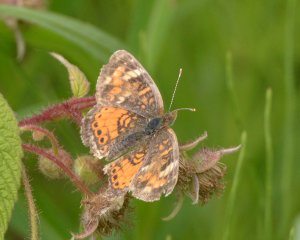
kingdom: Animalia
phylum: Arthropoda
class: Insecta
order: Lepidoptera
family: Nymphalidae
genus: Phyciodes
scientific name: Phyciodes tharos
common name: Northern Crescent
